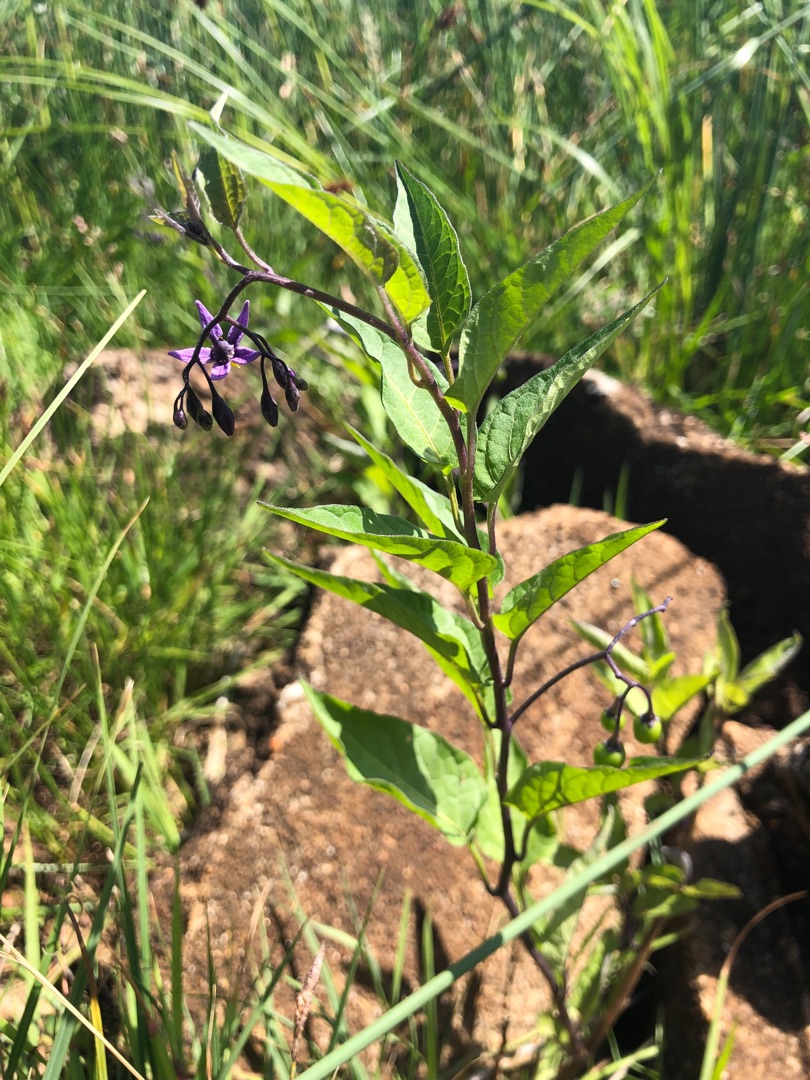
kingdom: Plantae
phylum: Tracheophyta
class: Magnoliopsida
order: Solanales
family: Solanaceae
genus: Solanum
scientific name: Solanum dulcamara
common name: Bittersød natskygge
